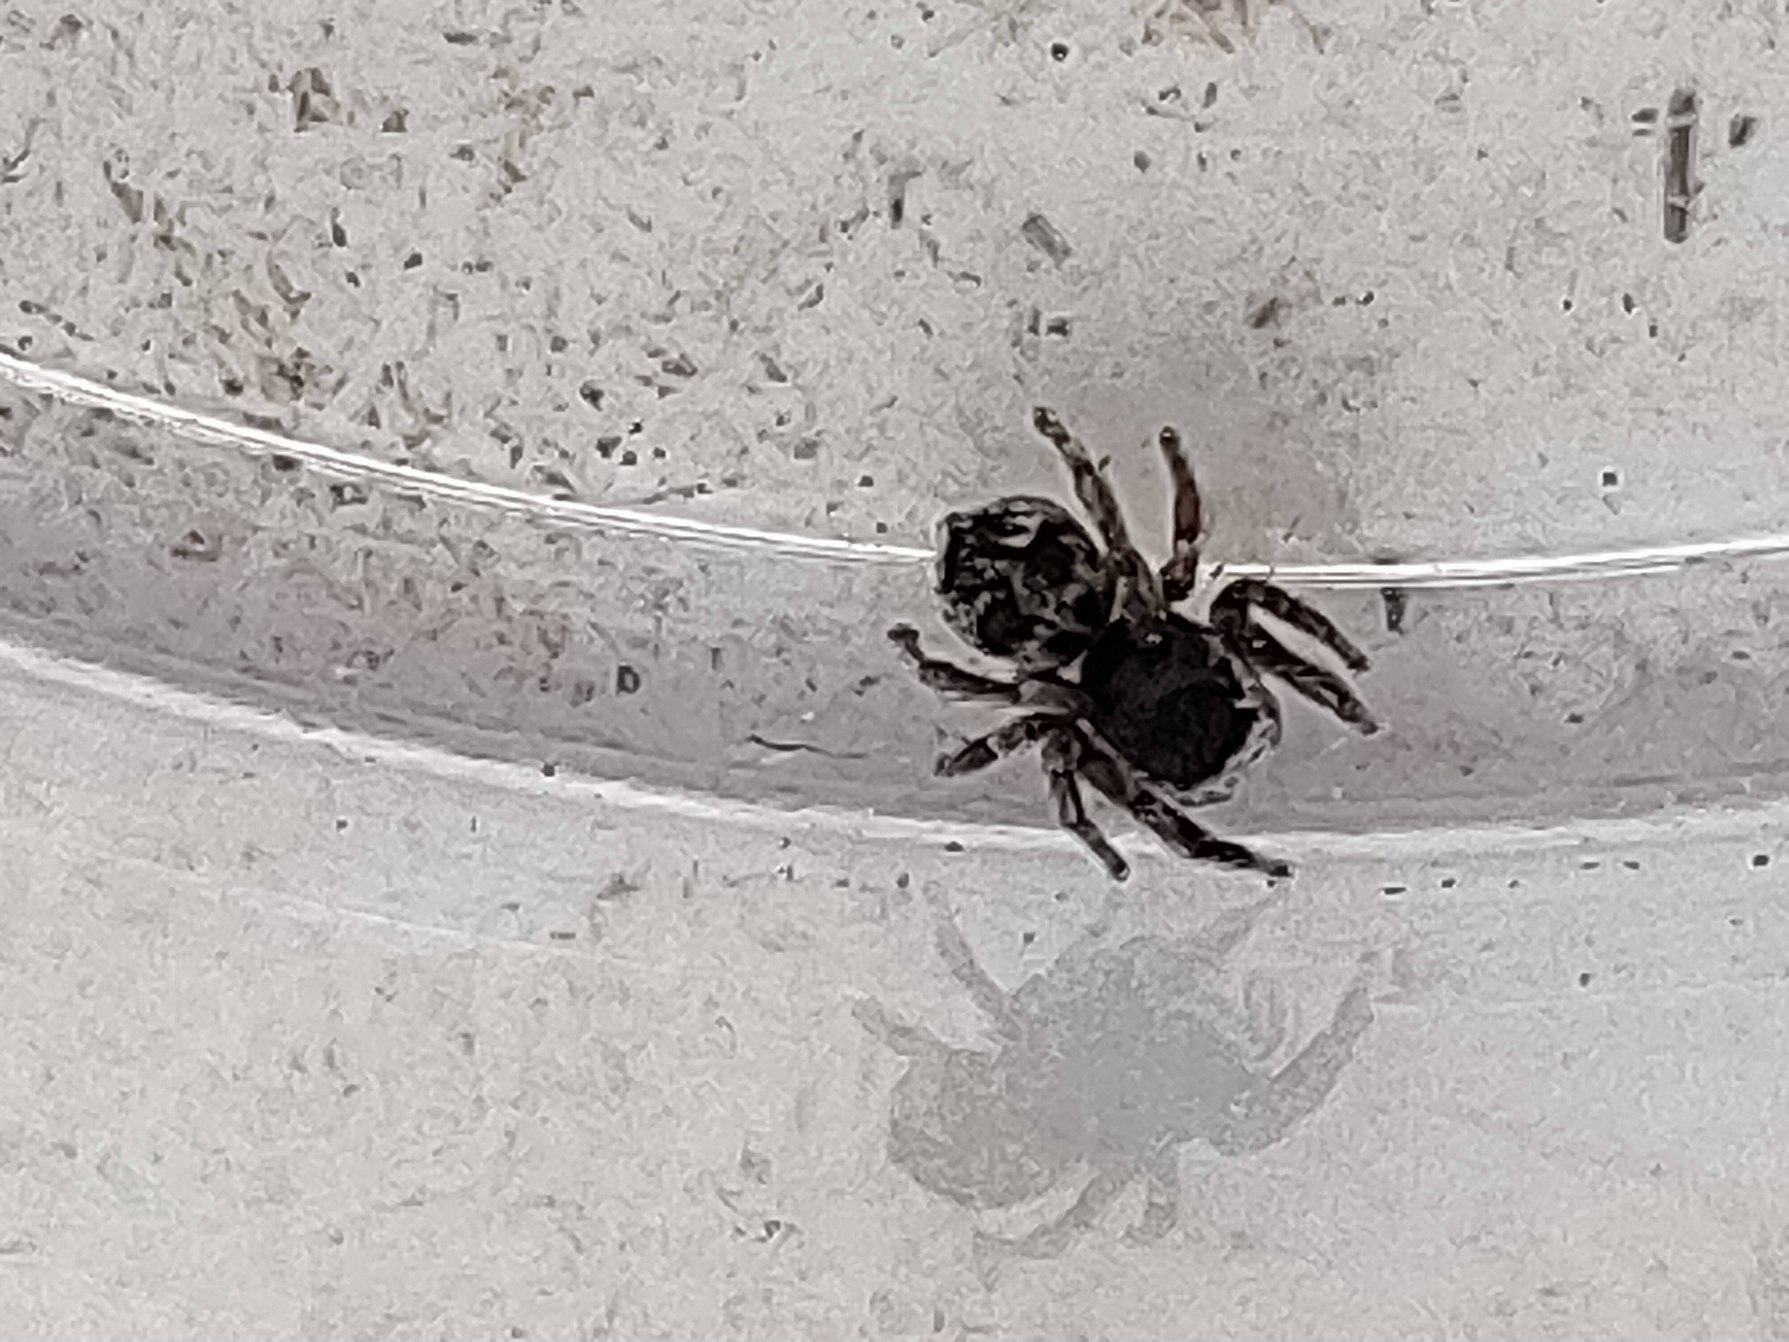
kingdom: Animalia
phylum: Arthropoda
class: Arachnida
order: Araneae
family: Salticidae
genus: Attulus
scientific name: Attulus saltator
